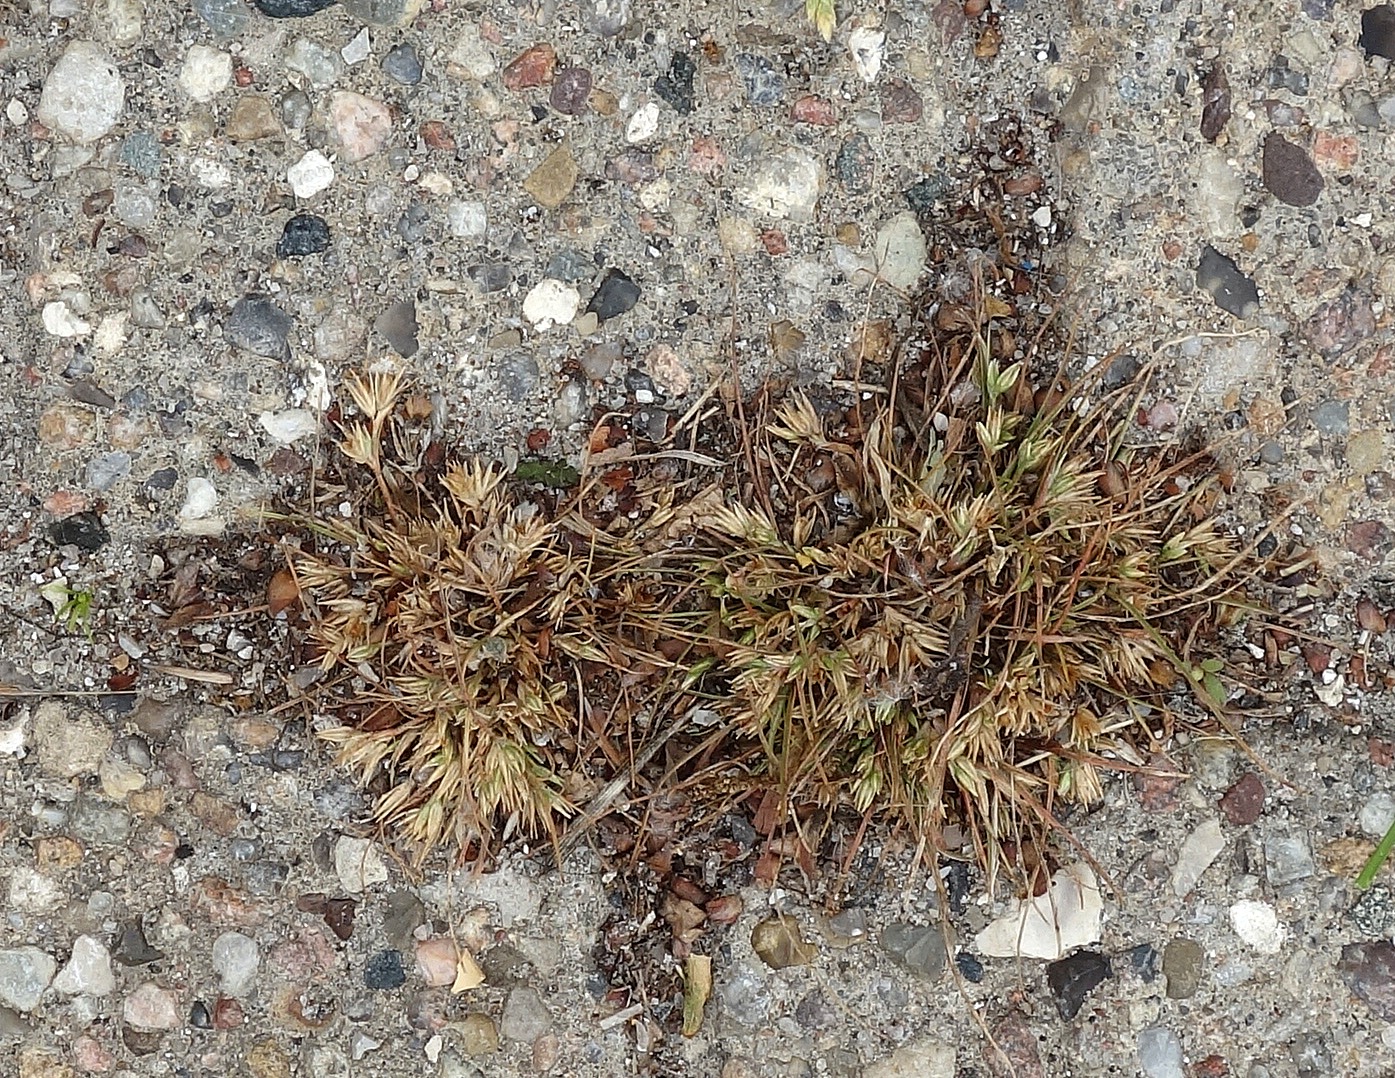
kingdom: Plantae
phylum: Tracheophyta
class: Liliopsida
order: Poales
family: Juncaceae
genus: Juncus
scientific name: Juncus bufonius
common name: Tudse-siv
